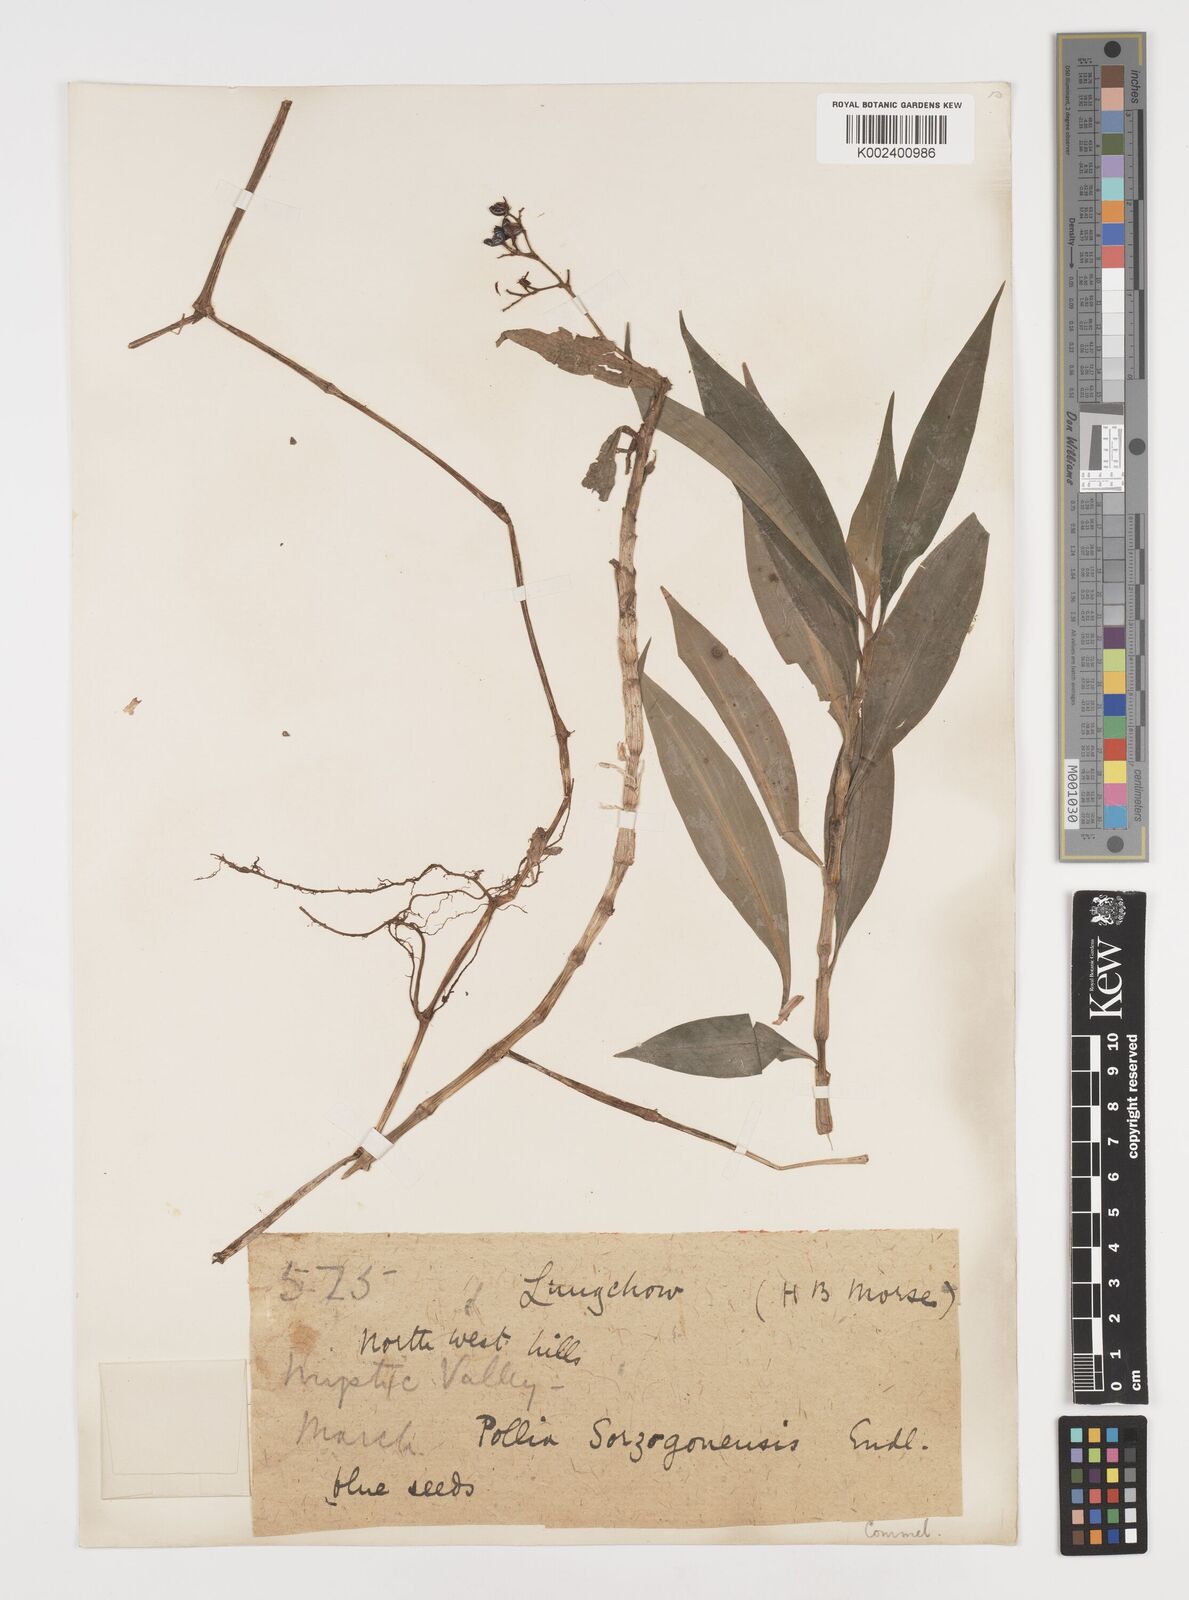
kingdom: Plantae
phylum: Tracheophyta
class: Liliopsida
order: Commelinales
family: Commelinaceae
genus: Pollia
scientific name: Pollia secundiflora
